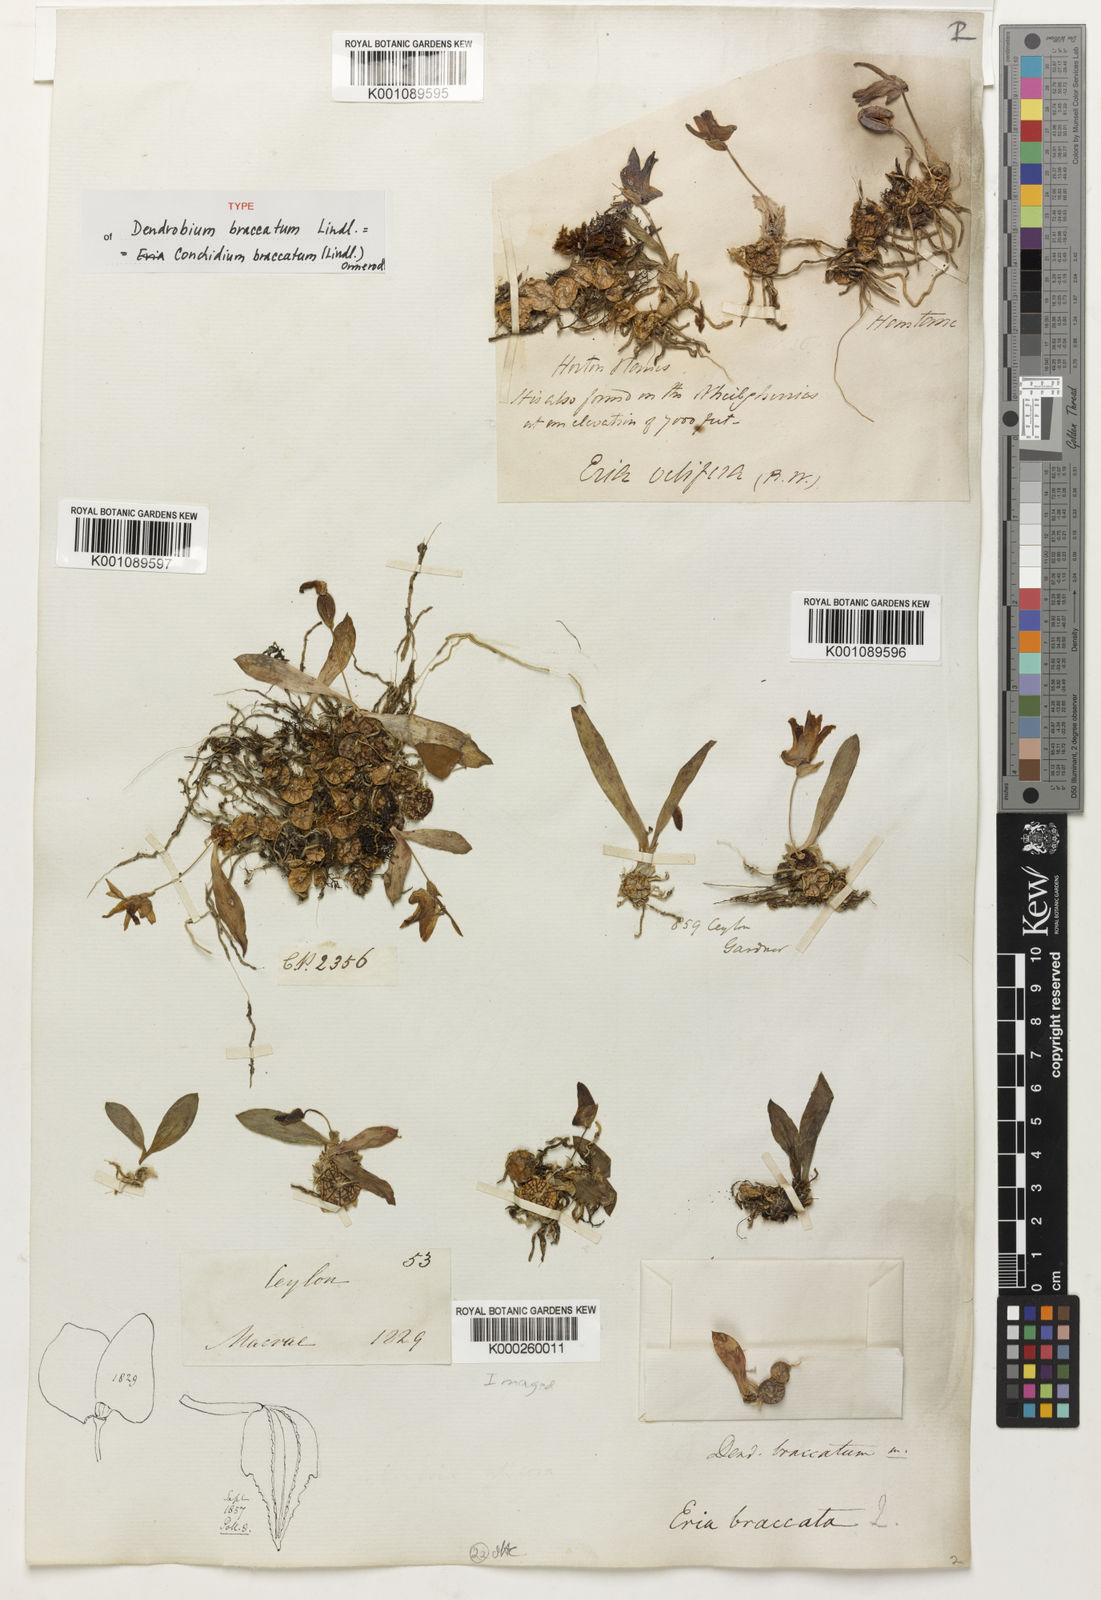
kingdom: Plantae
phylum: Tracheophyta
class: Liliopsida
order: Asparagales
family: Orchidaceae
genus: Porpax
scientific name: Porpax braccata
